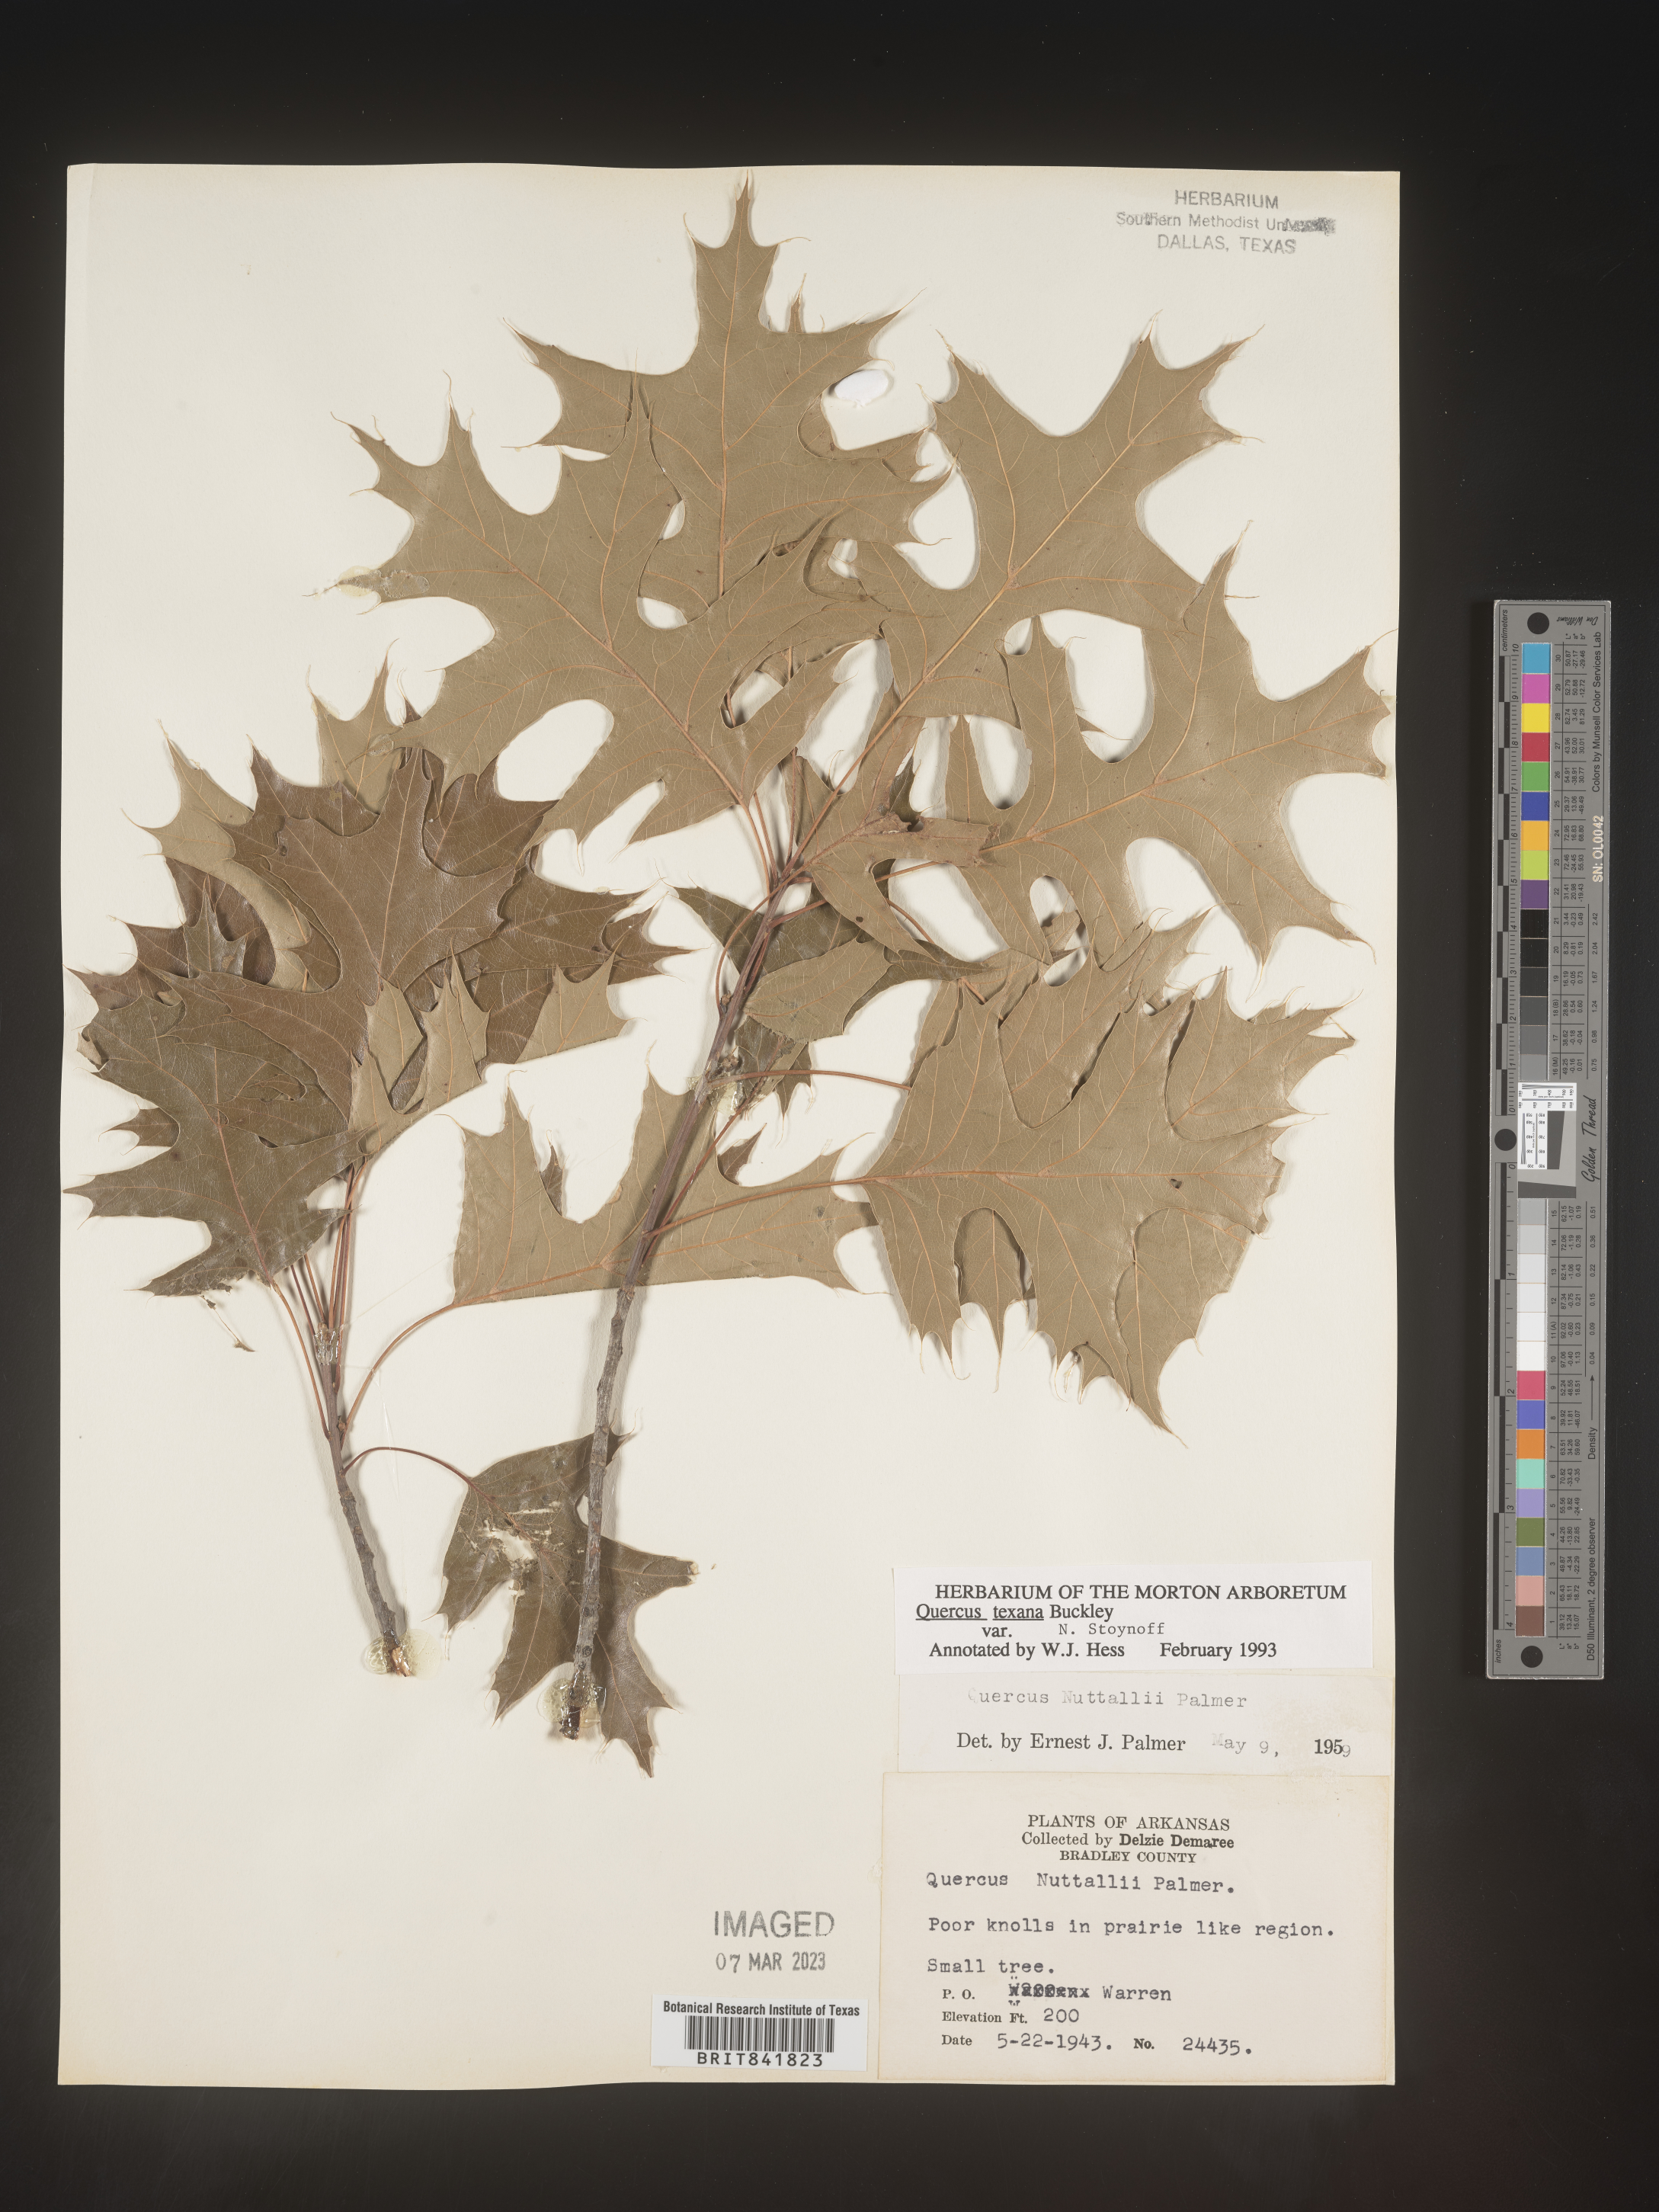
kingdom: Plantae
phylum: Tracheophyta
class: Magnoliopsida
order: Fagales
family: Fagaceae
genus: Quercus
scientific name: Quercus texana
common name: Nuttall oak
